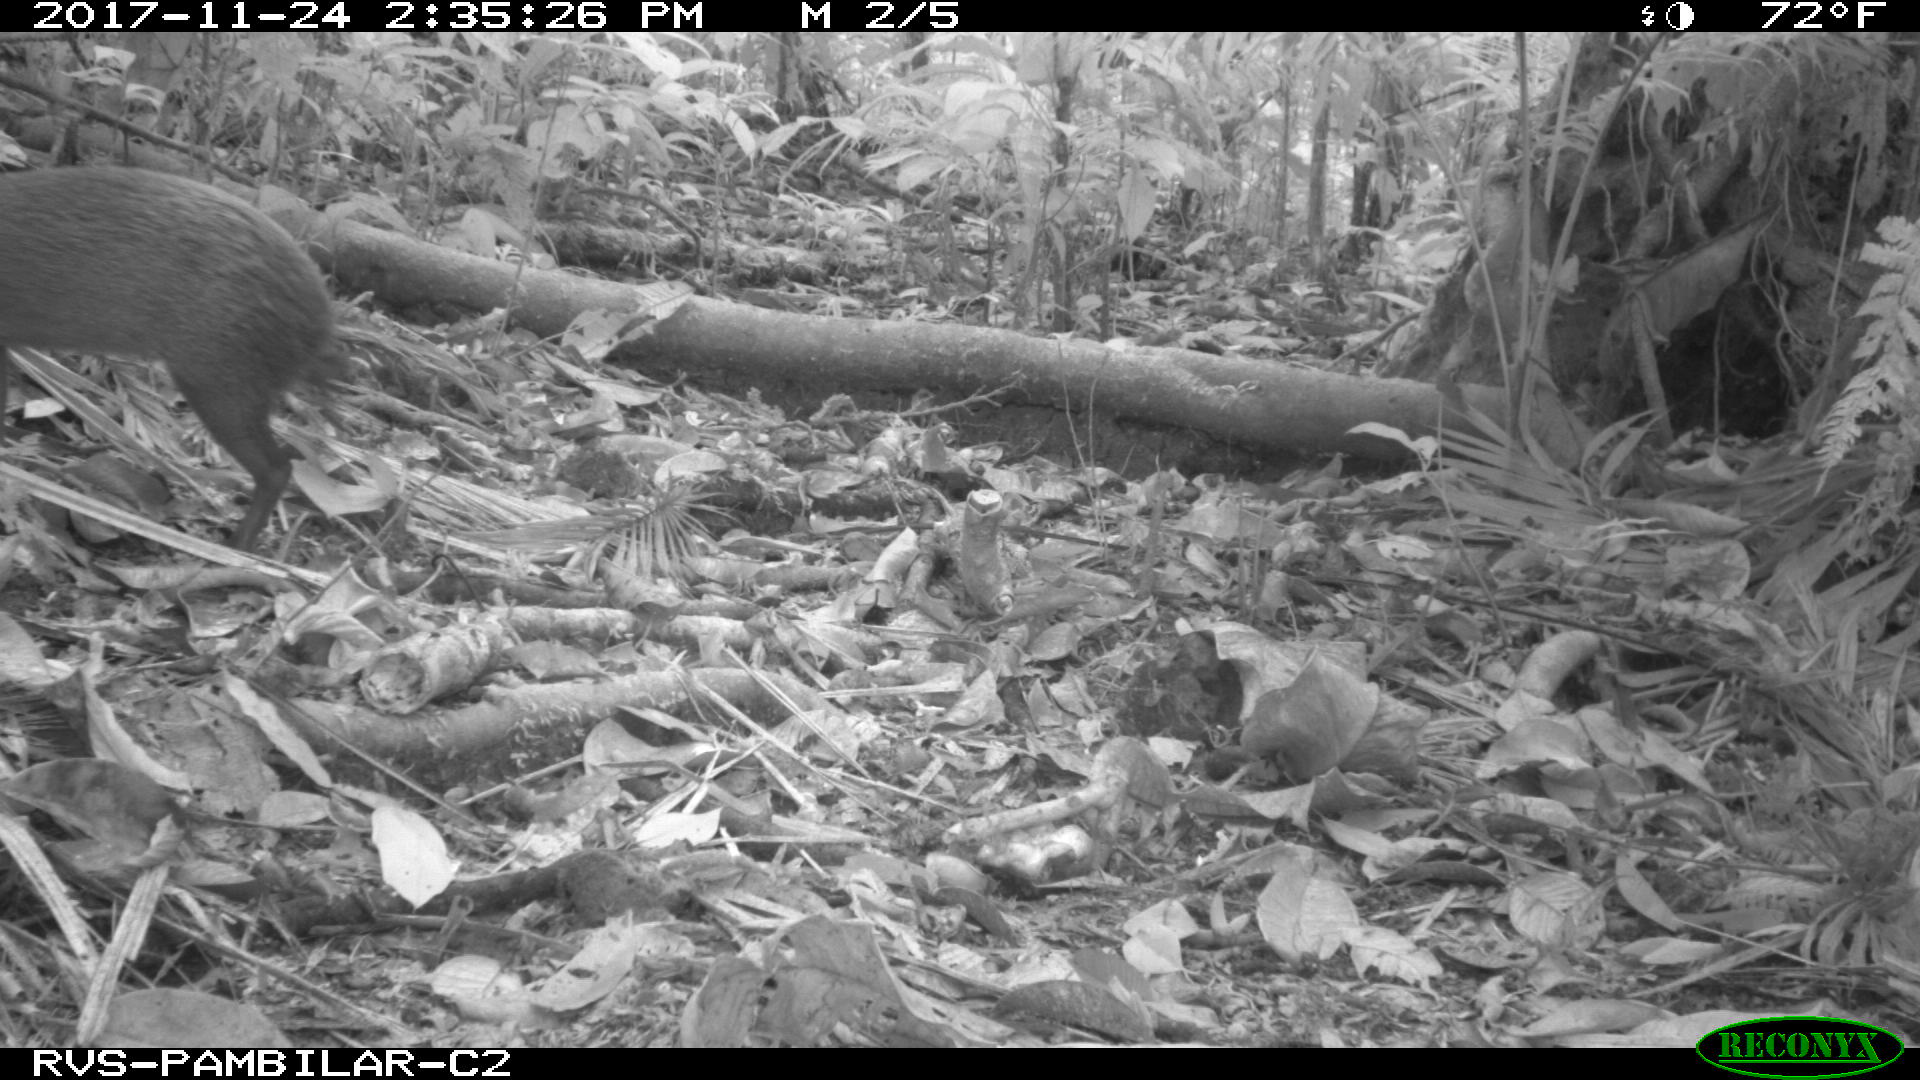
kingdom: Animalia
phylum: Chordata
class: Mammalia
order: Rodentia
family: Dasyproctidae
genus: Dasyprocta
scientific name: Dasyprocta punctata
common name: Central american agouti
